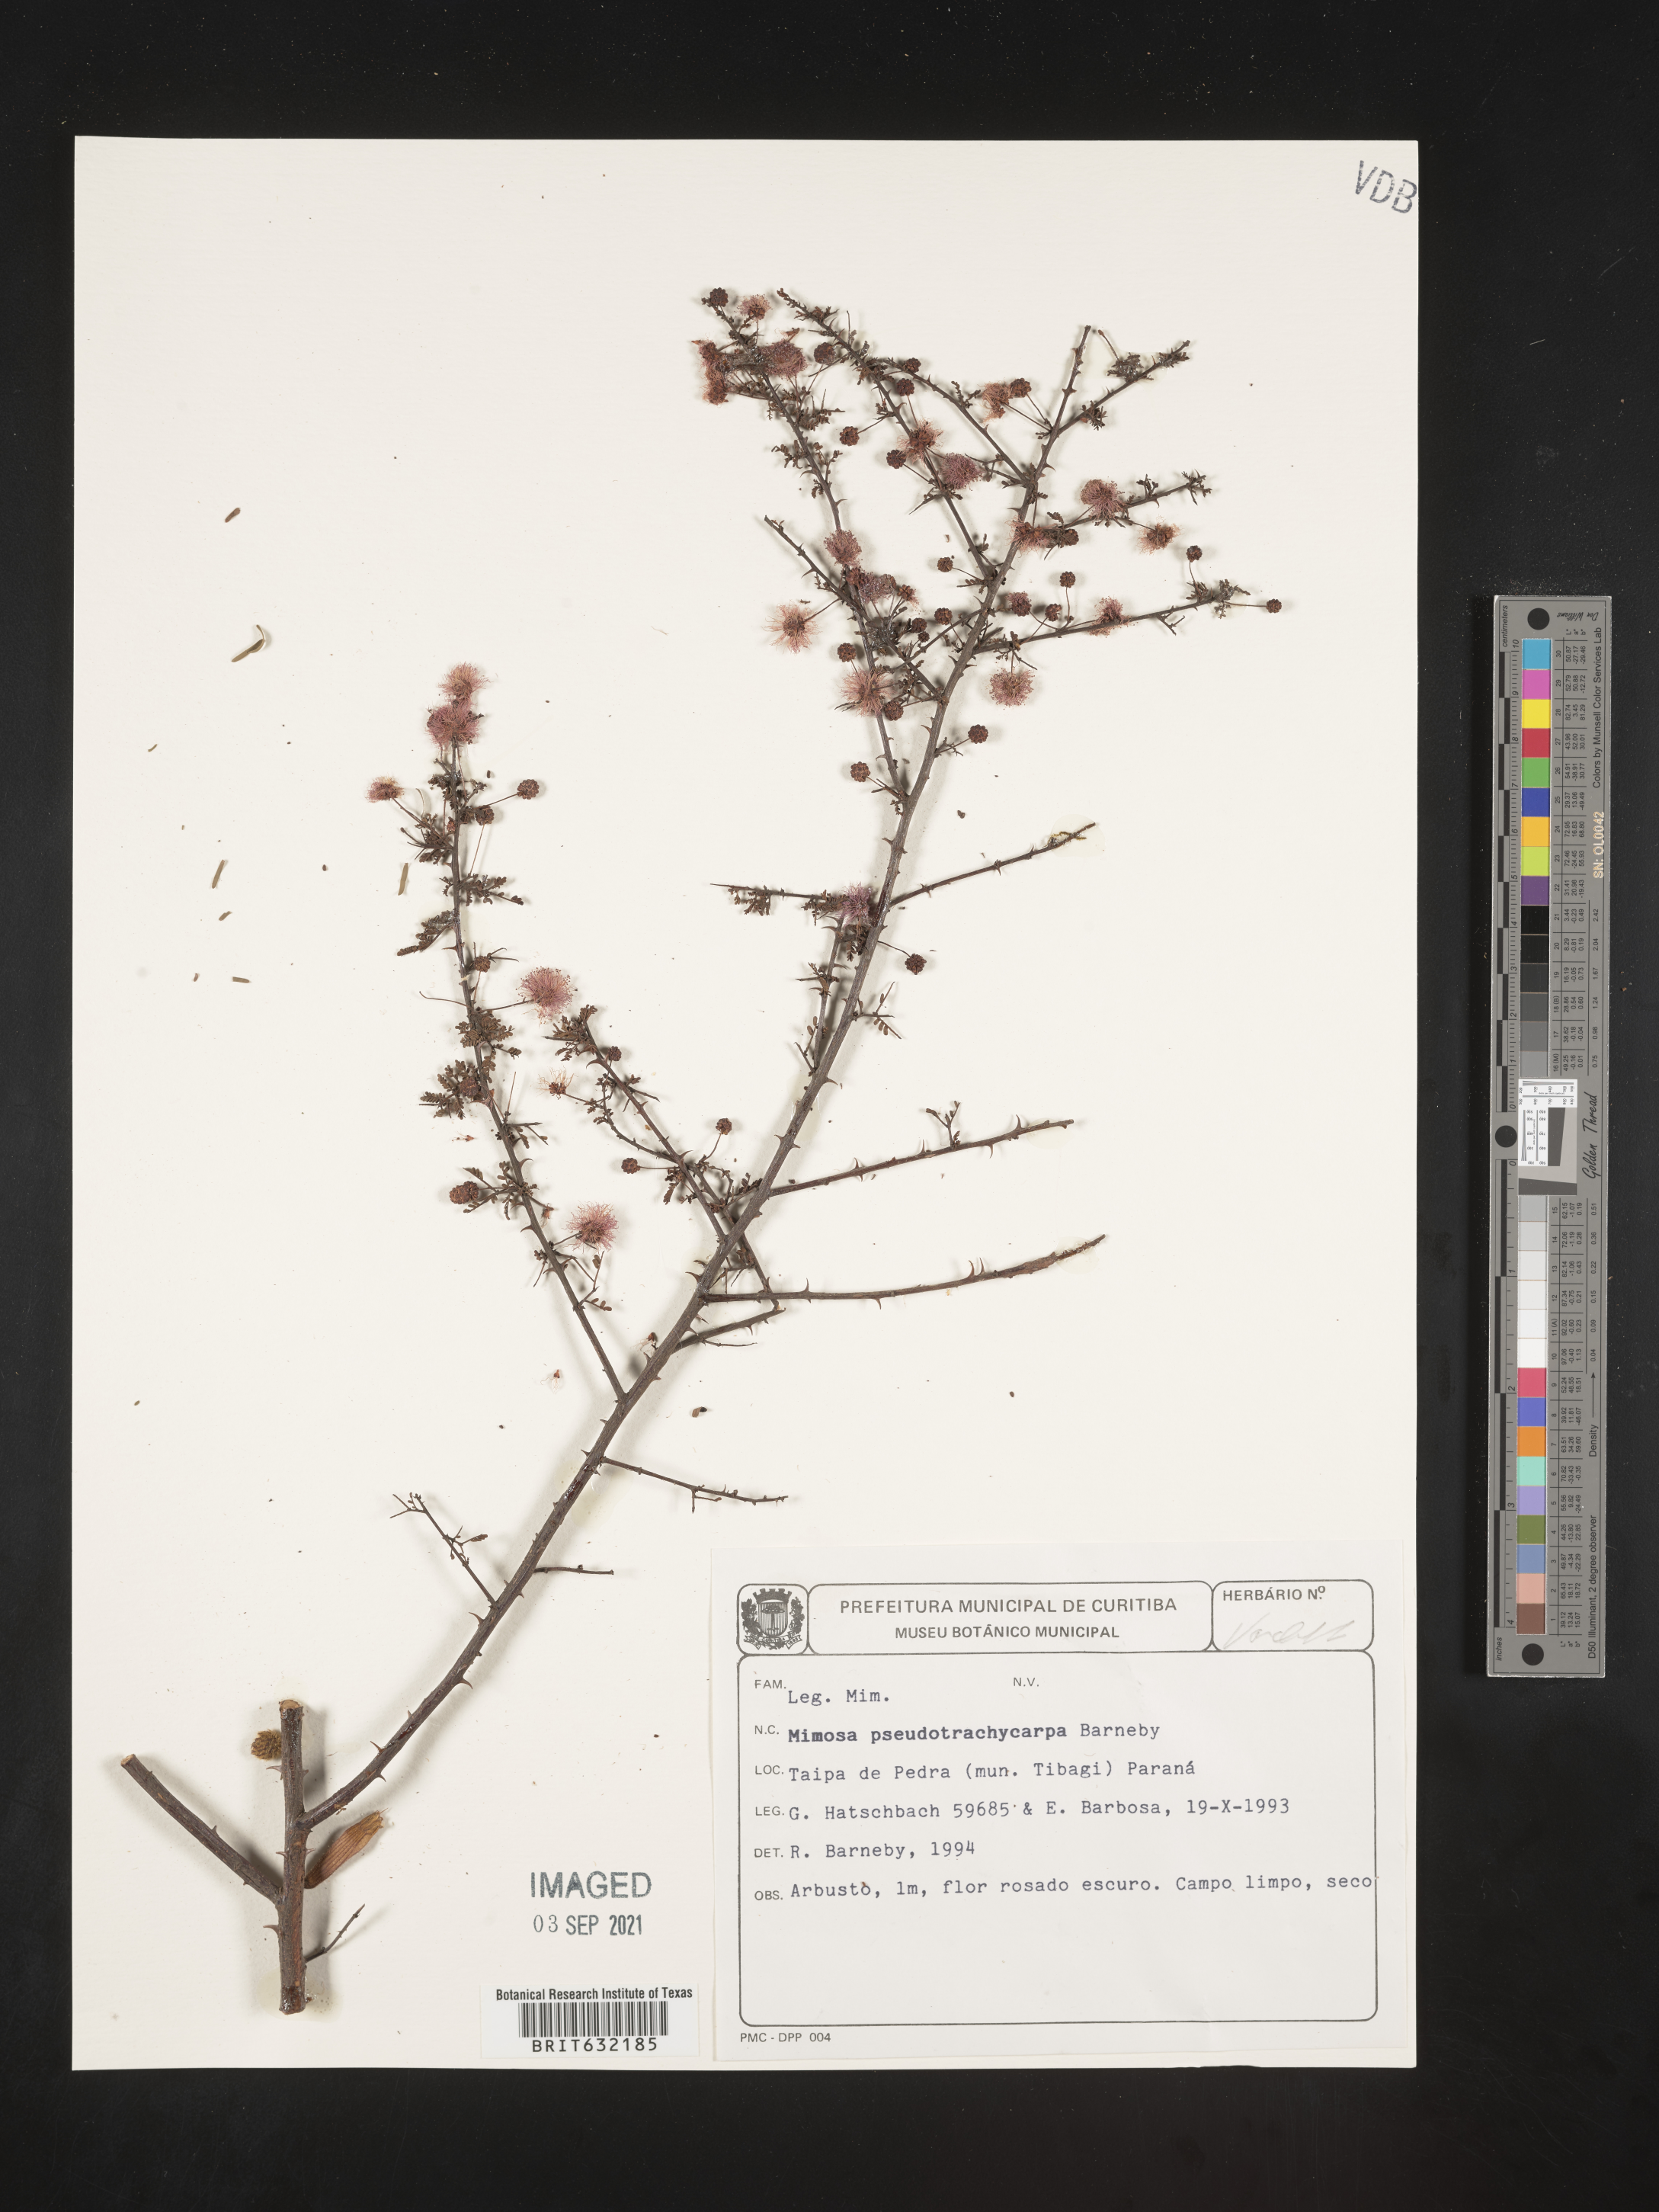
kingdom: Plantae
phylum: Tracheophyta
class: Magnoliopsida
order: Fabales
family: Fabaceae
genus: Mimosa
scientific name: Mimosa
